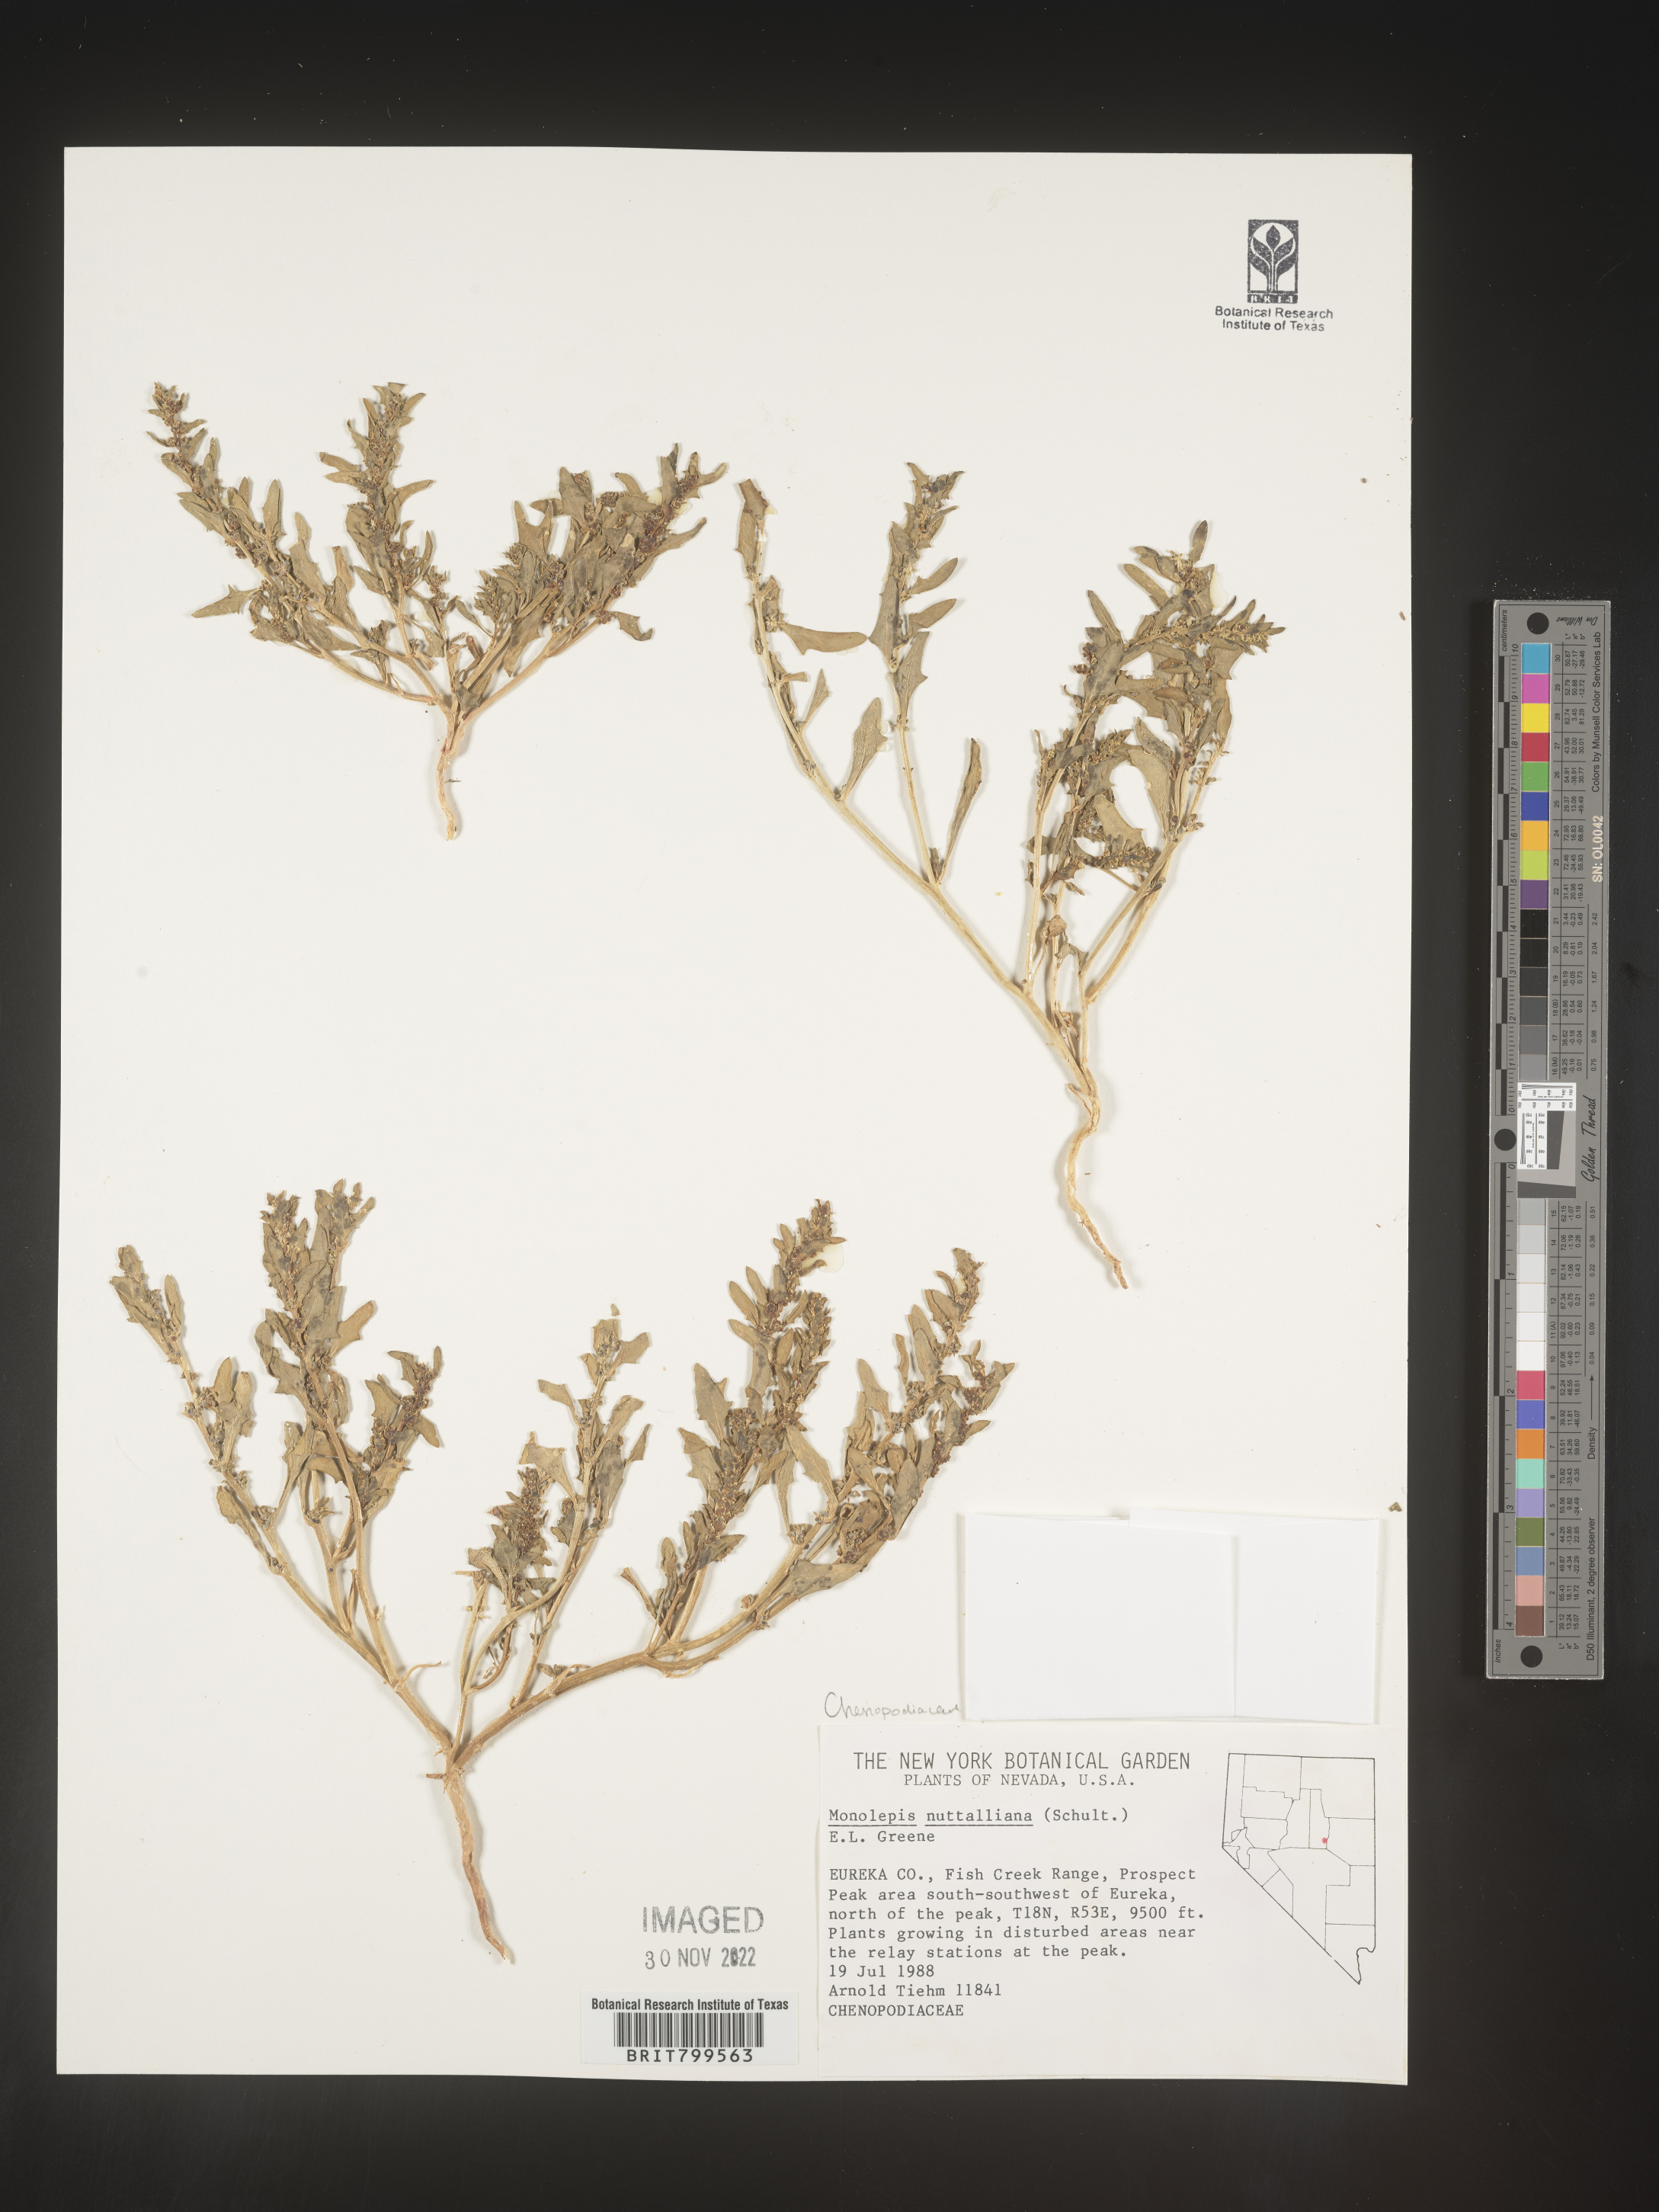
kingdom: Plantae
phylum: Tracheophyta
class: Magnoliopsida
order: Caryophyllales
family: Amaranthaceae
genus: Blitum
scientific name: Blitum
